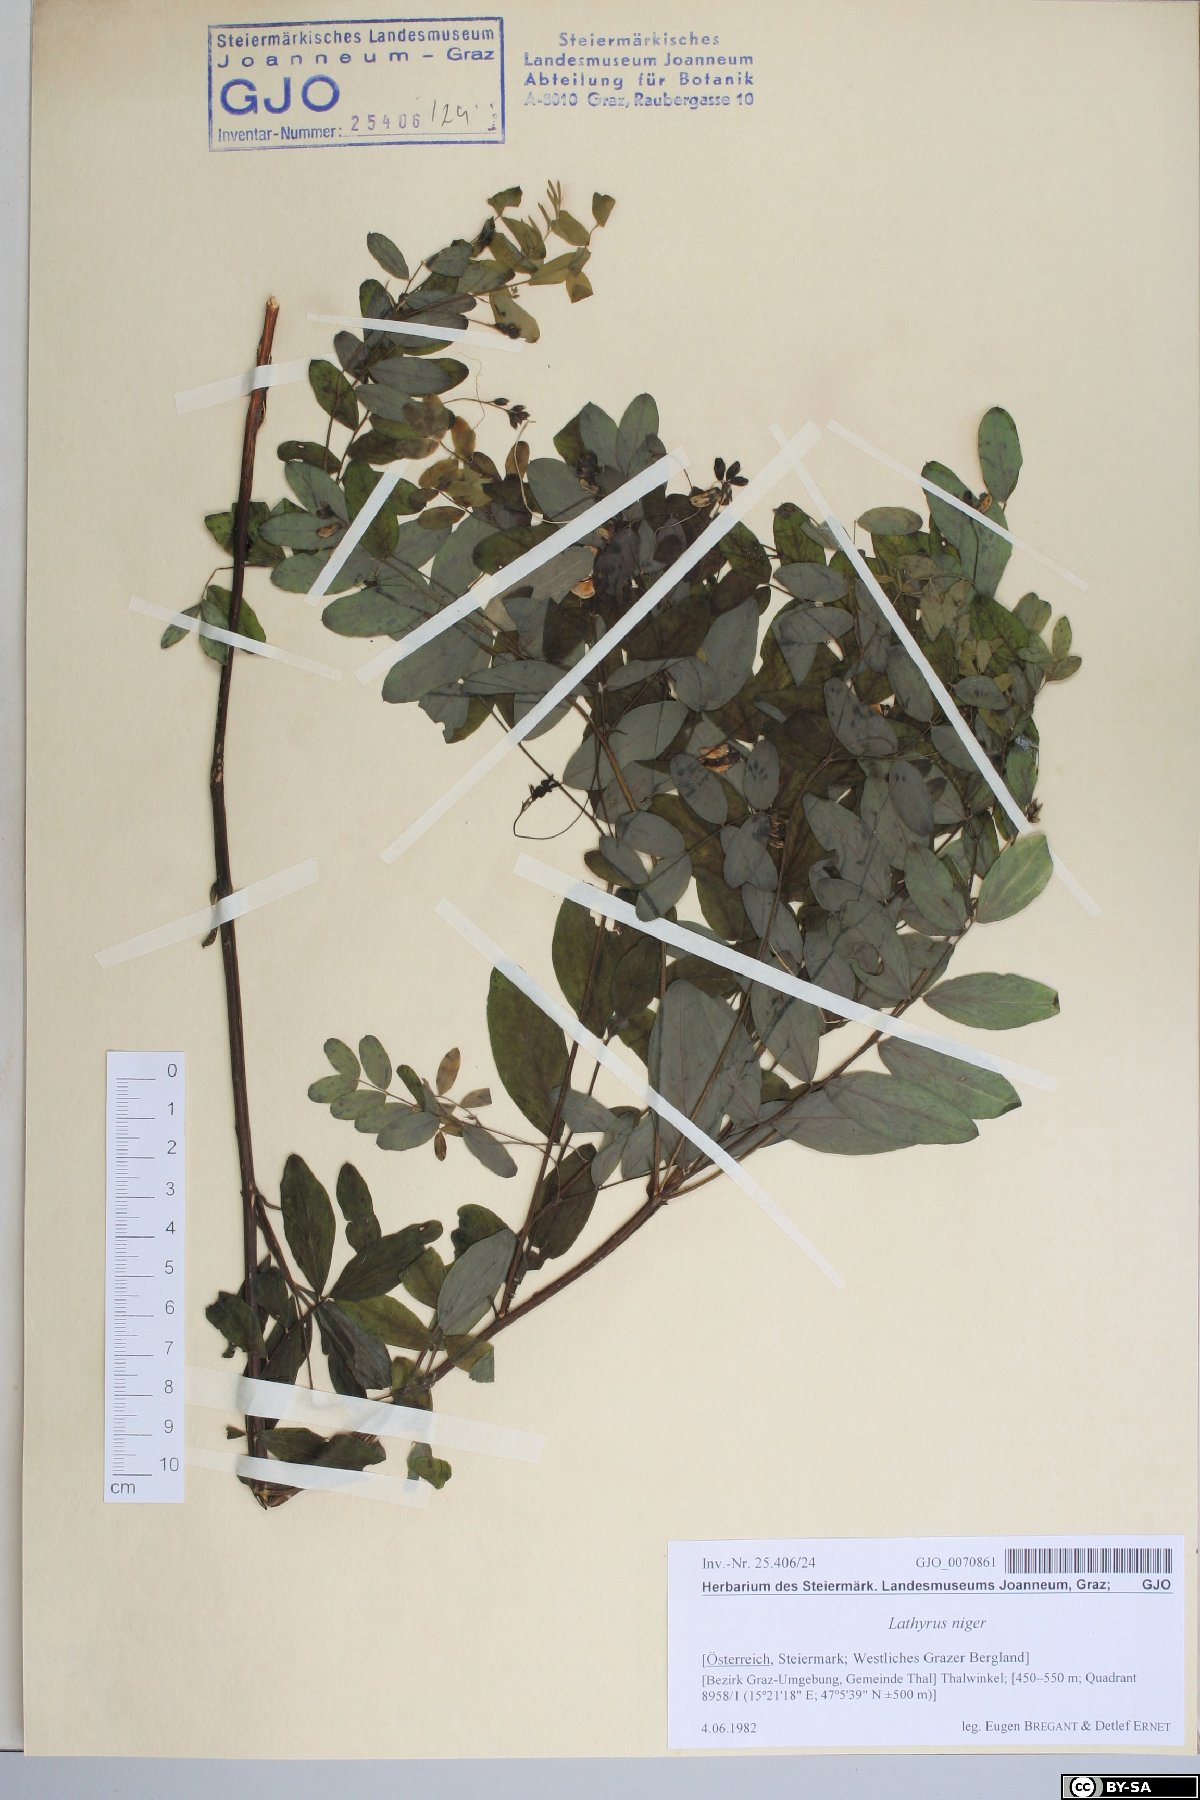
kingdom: Plantae
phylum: Tracheophyta
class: Magnoliopsida
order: Fabales
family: Fabaceae
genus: Lathyrus
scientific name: Lathyrus niger
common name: Black pea
